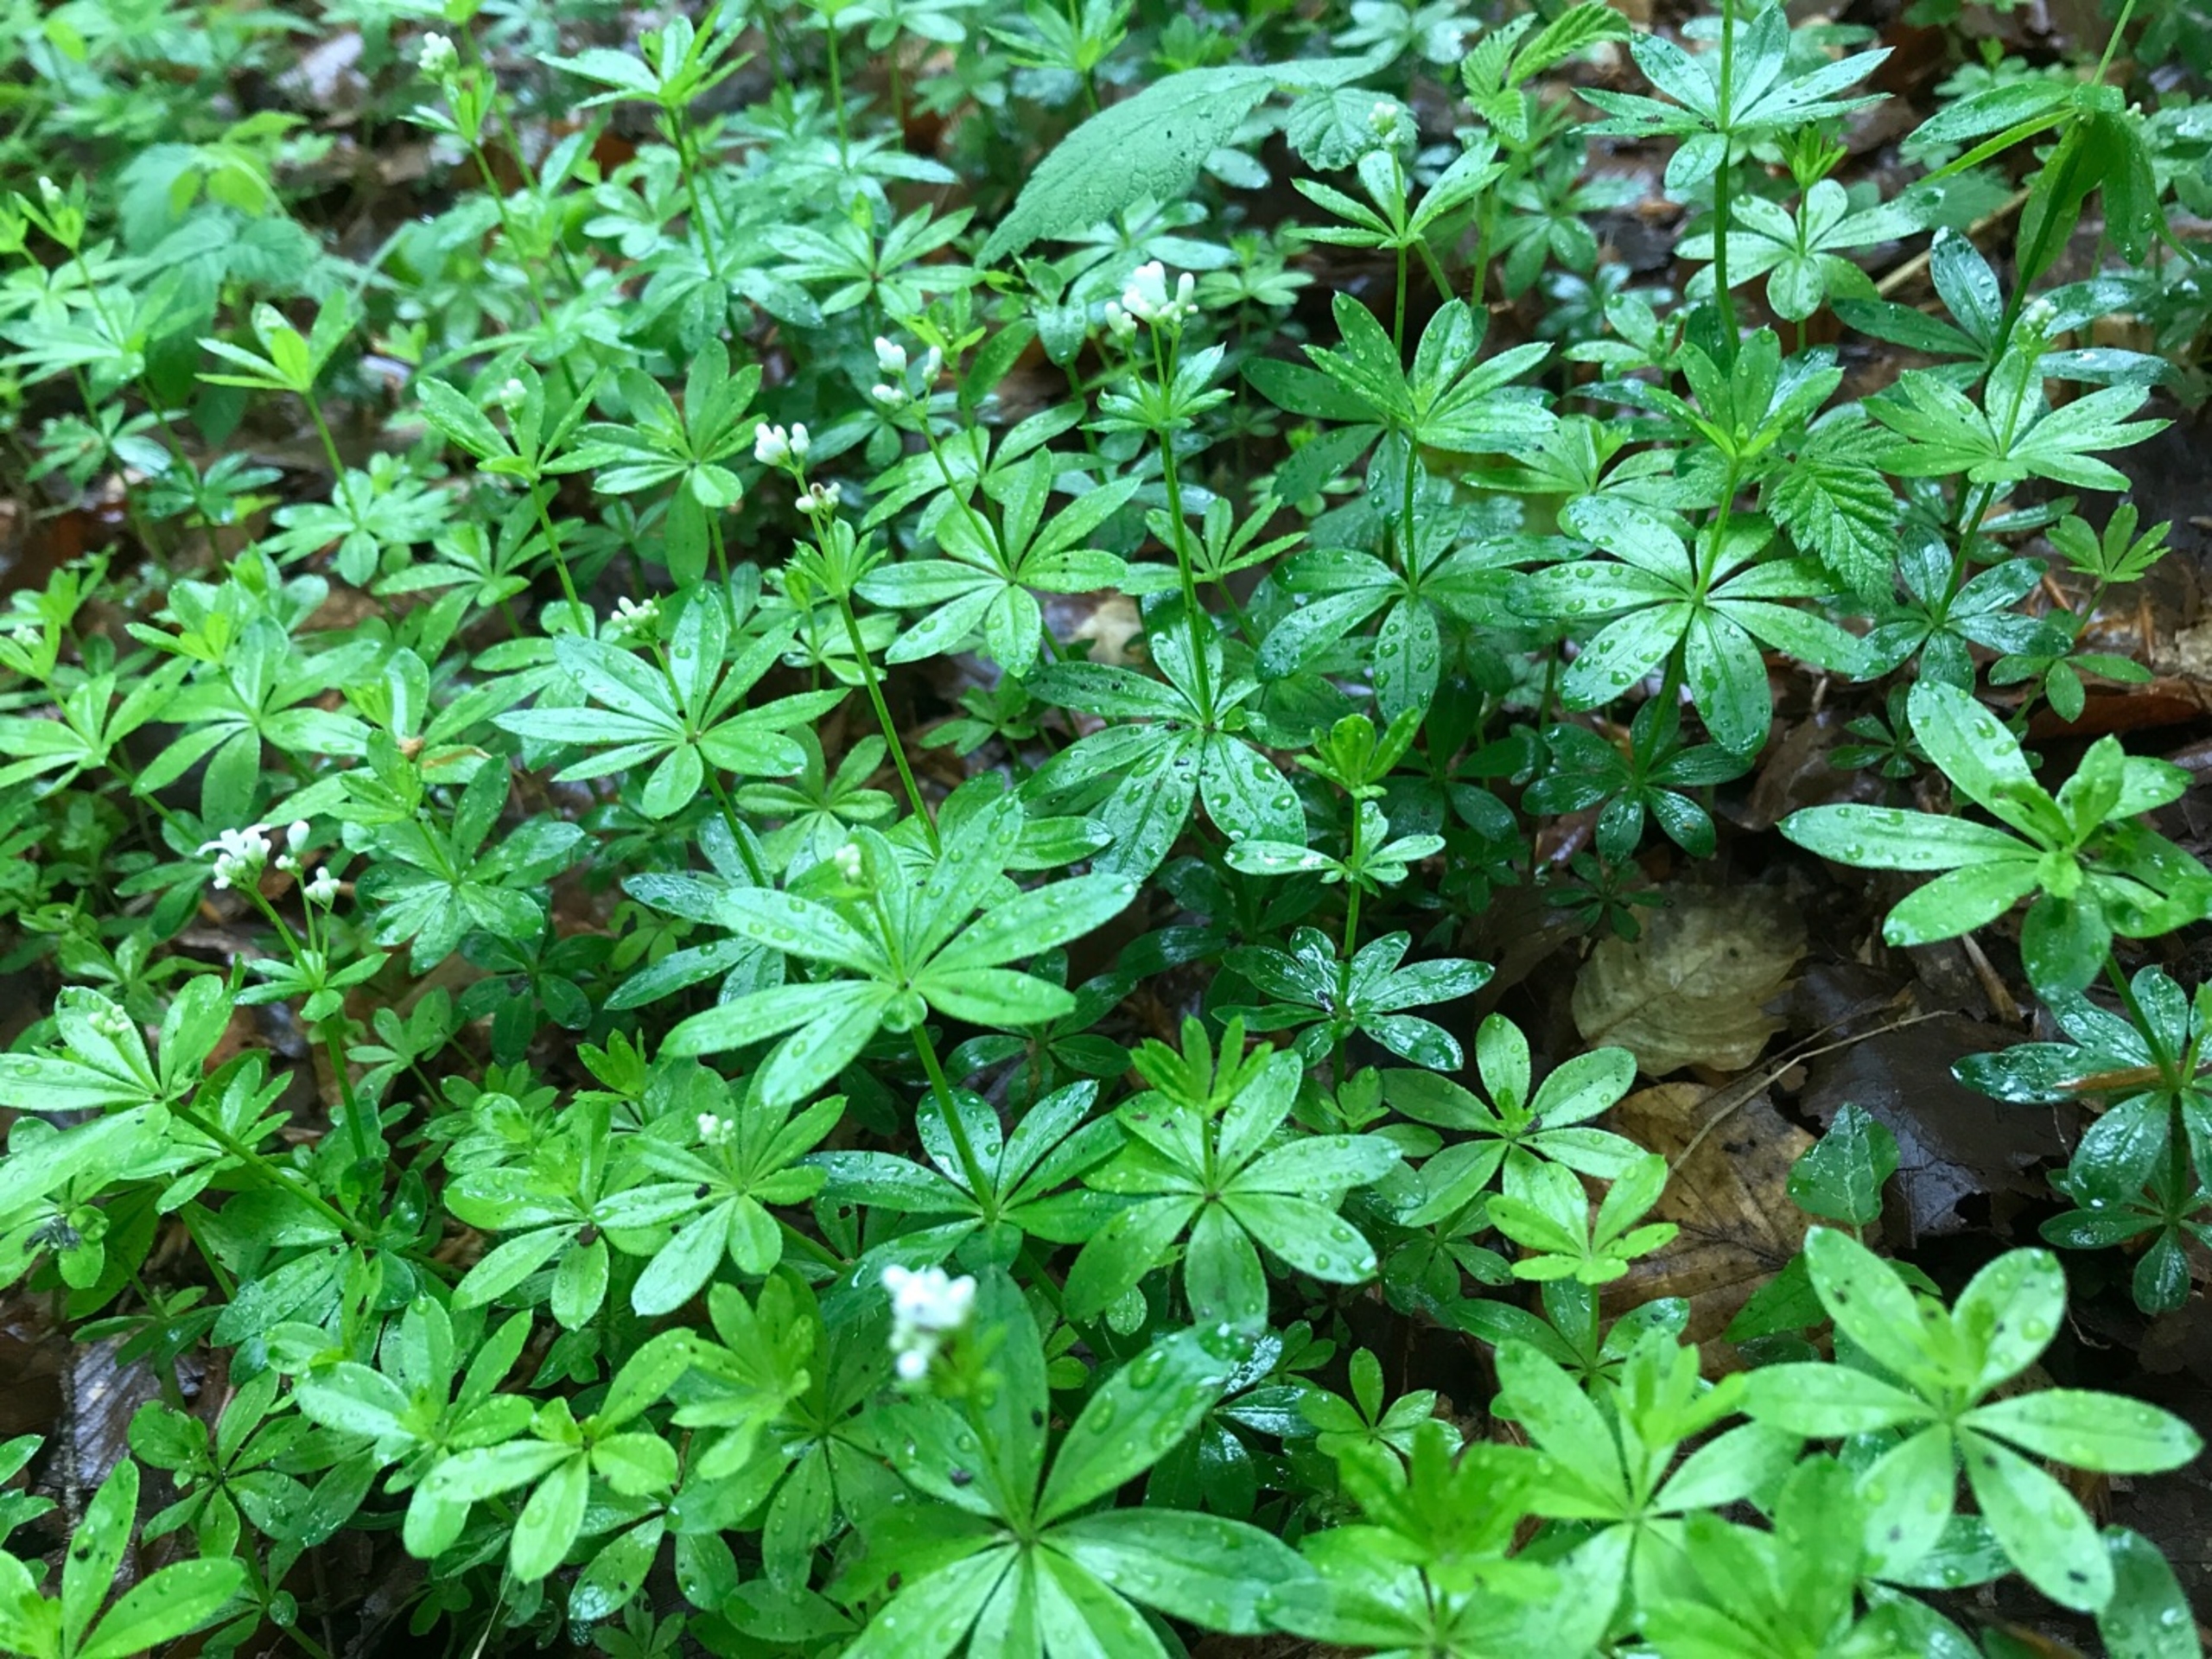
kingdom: Plantae
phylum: Tracheophyta
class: Magnoliopsida
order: Gentianales
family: Rubiaceae
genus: Galium
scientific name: Galium odoratum
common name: Skovmærke
